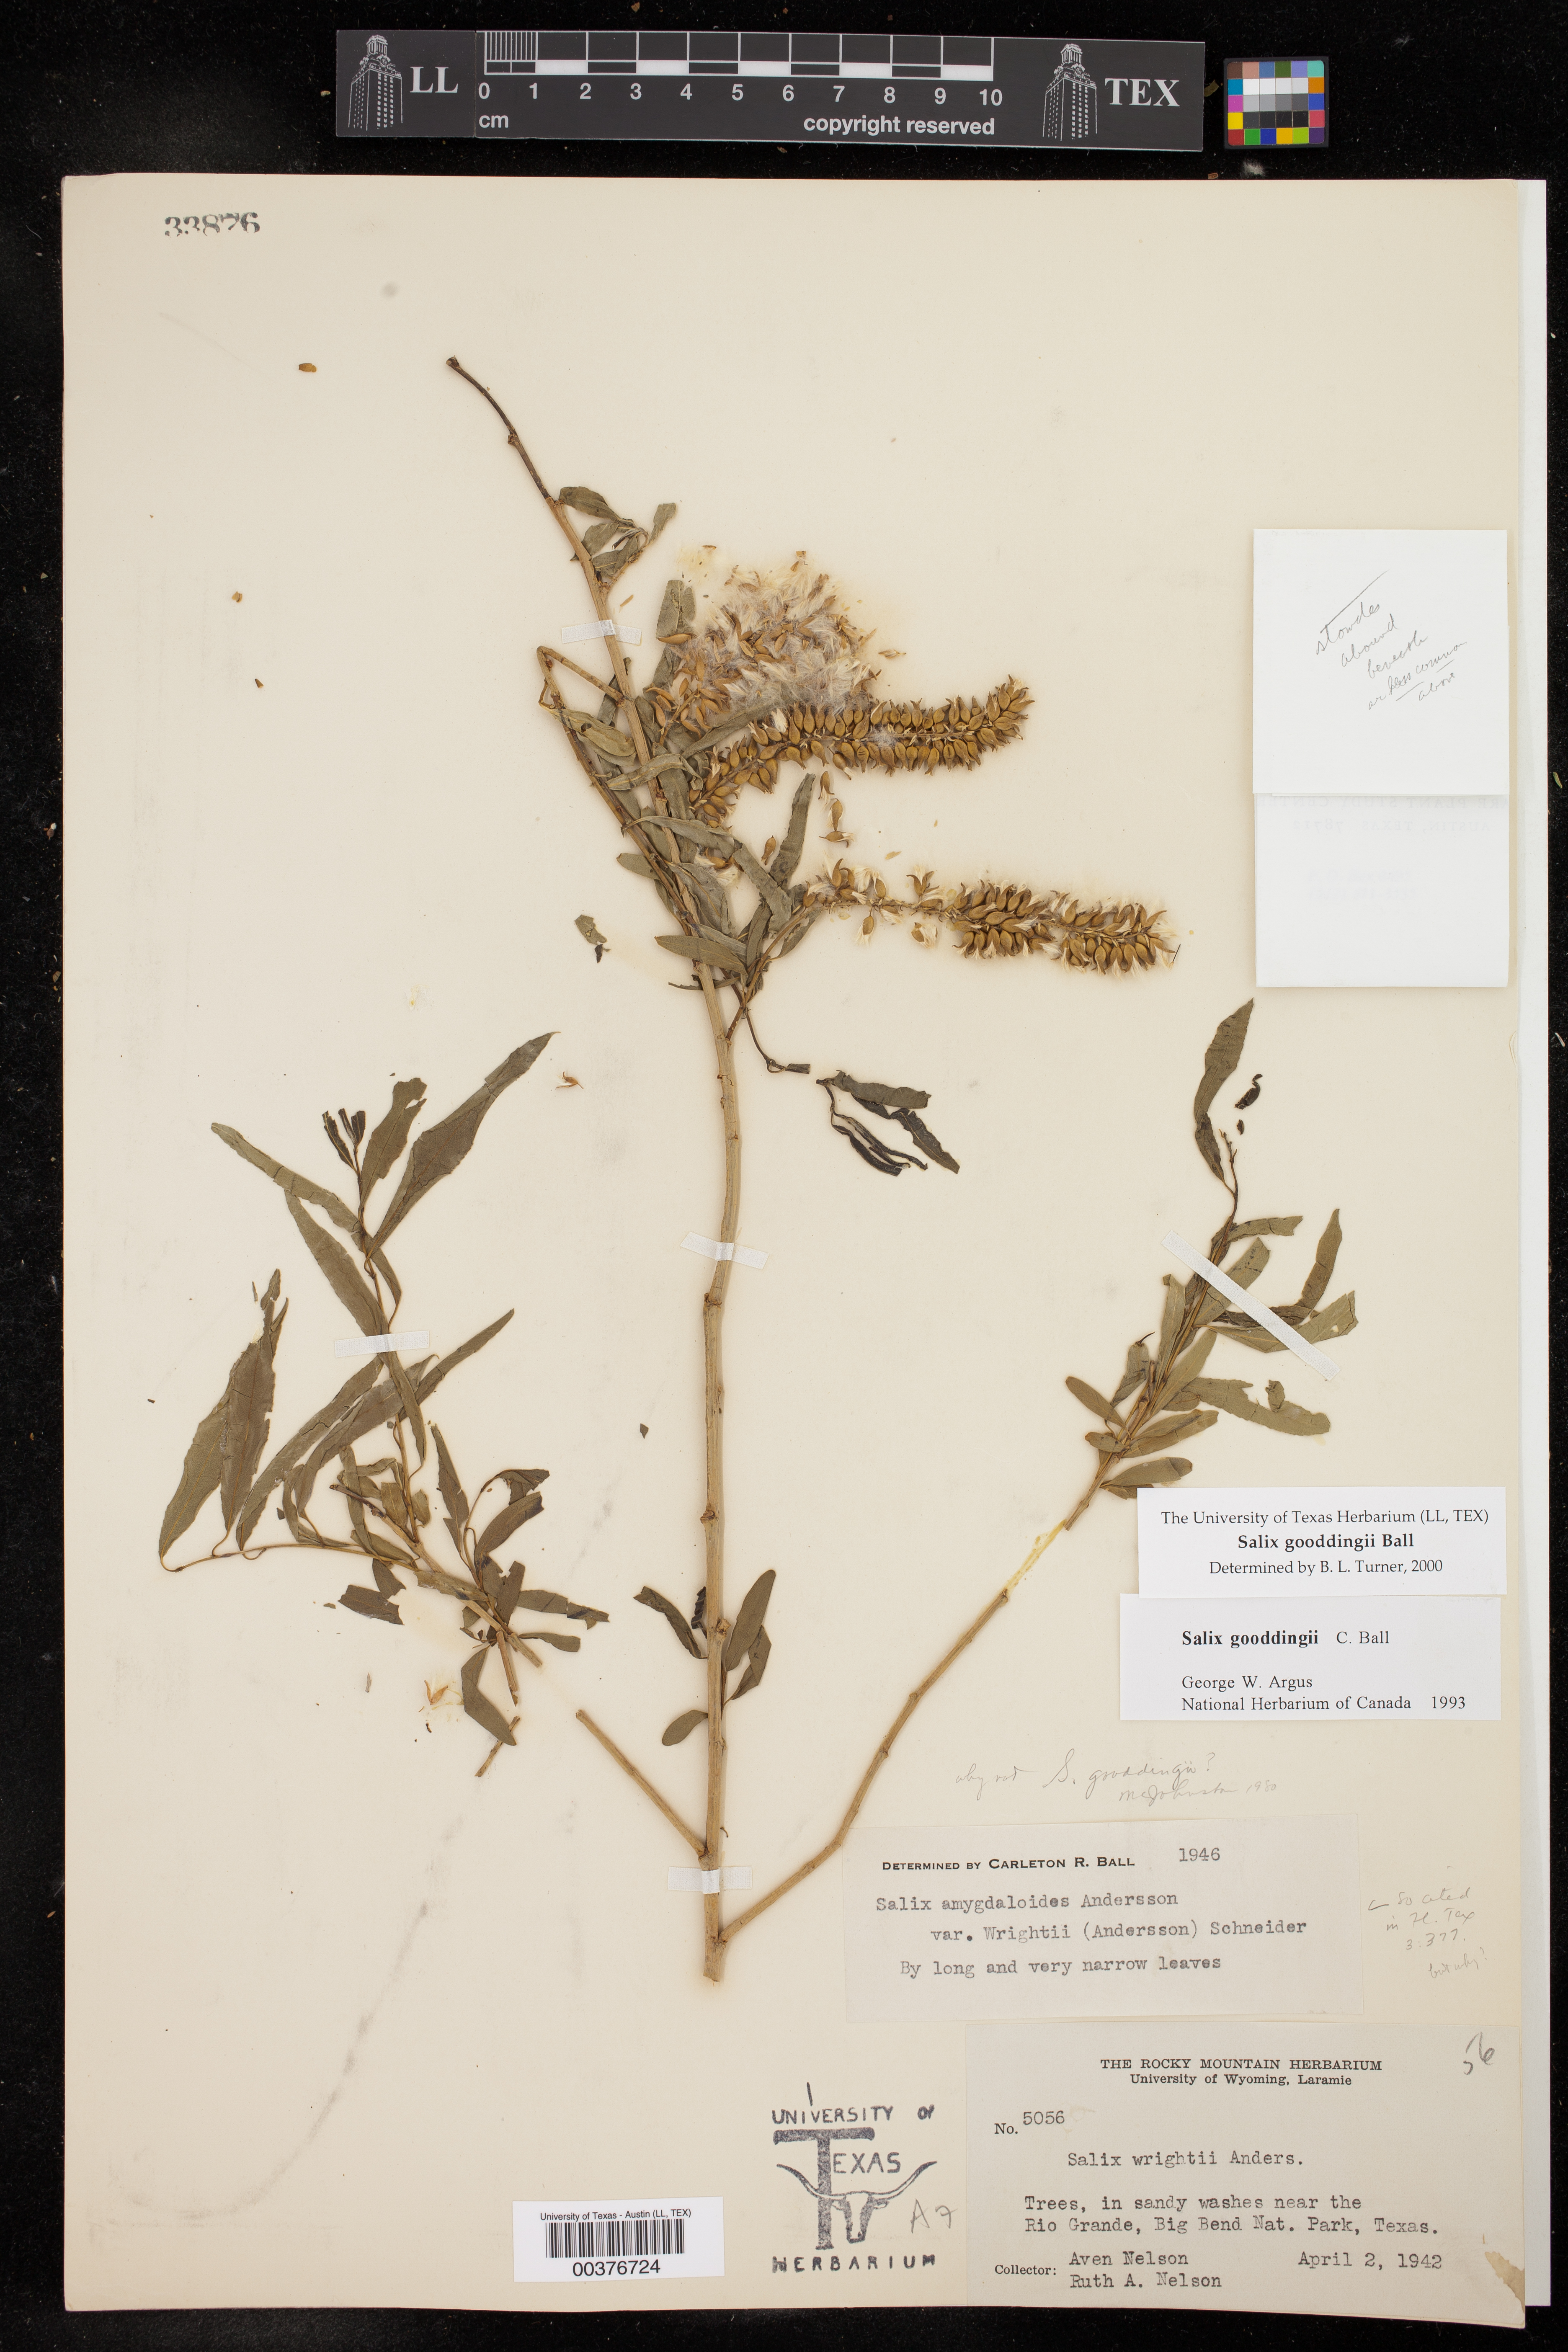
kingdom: Plantae
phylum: Tracheophyta
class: Magnoliopsida
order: Malpighiales
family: Salicaceae
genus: Salix
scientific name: Salix gooddingii
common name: Goodding's willow
